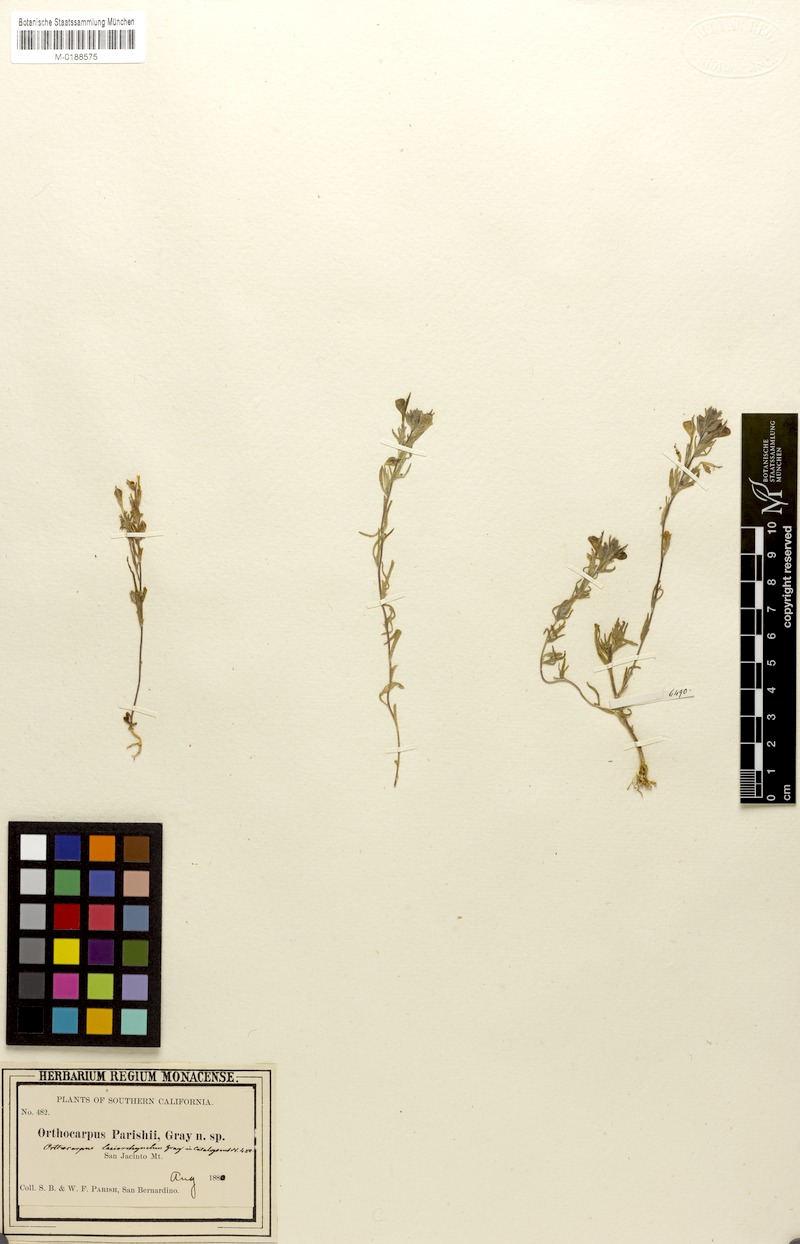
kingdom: Plantae
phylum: Tracheophyta
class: Magnoliopsida
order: Lamiales
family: Orobanchaceae
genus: Castilleja
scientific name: Castilleja densiflora
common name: Dense-flower indian paintbrush
